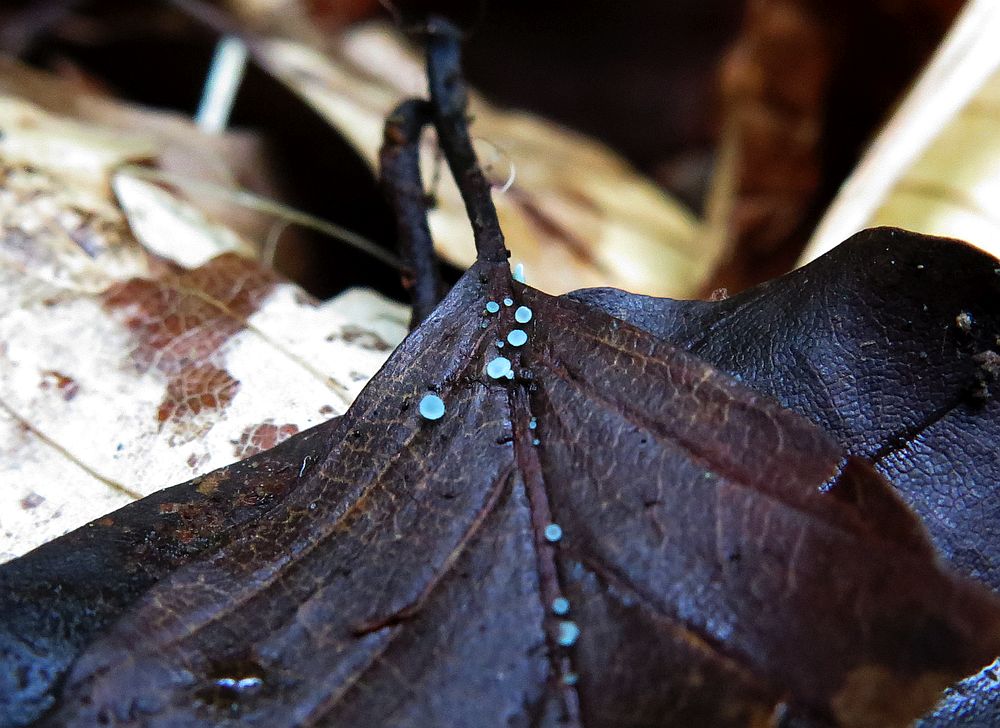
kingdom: Fungi
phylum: Ascomycota
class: Leotiomycetes
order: Helotiales
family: Chlorociboriaceae
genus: Chlorociboria
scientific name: Chlorociboria aeruginella
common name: urte-grønskive
